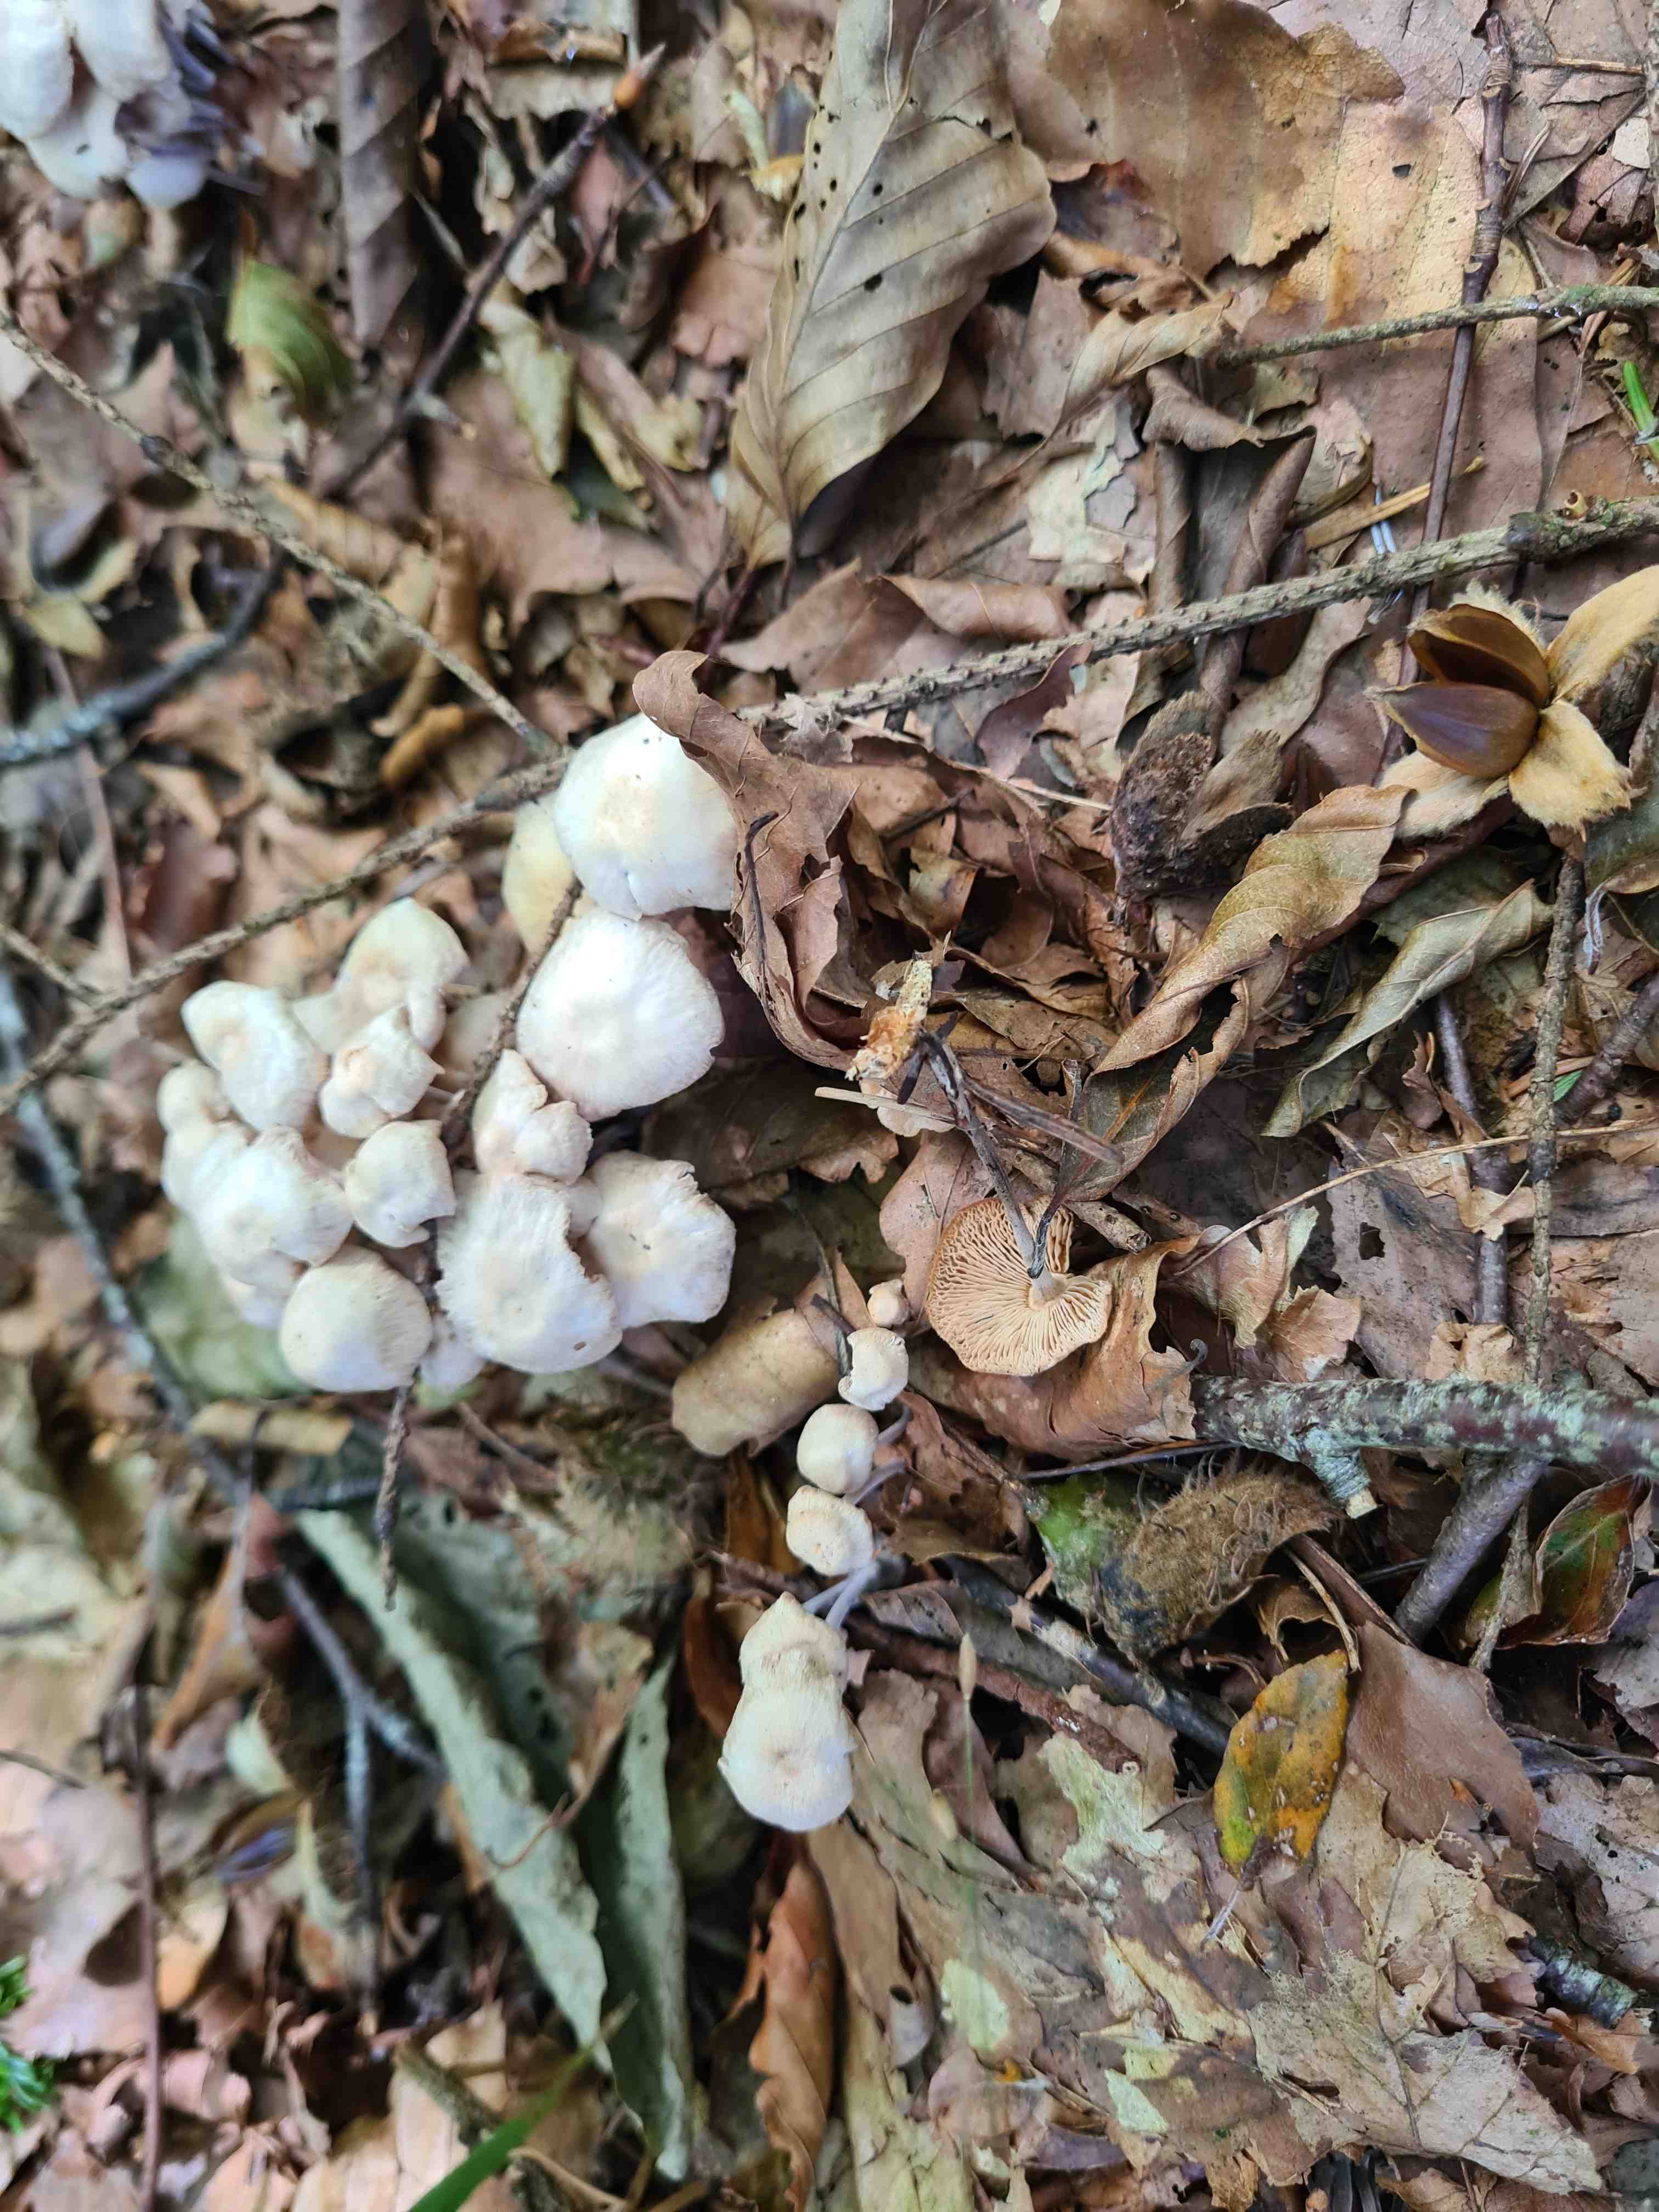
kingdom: Fungi
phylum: Basidiomycota
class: Agaricomycetes
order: Agaricales
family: Omphalotaceae
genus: Collybiopsis
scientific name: Collybiopsis confluens
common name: knippe-fladhat
